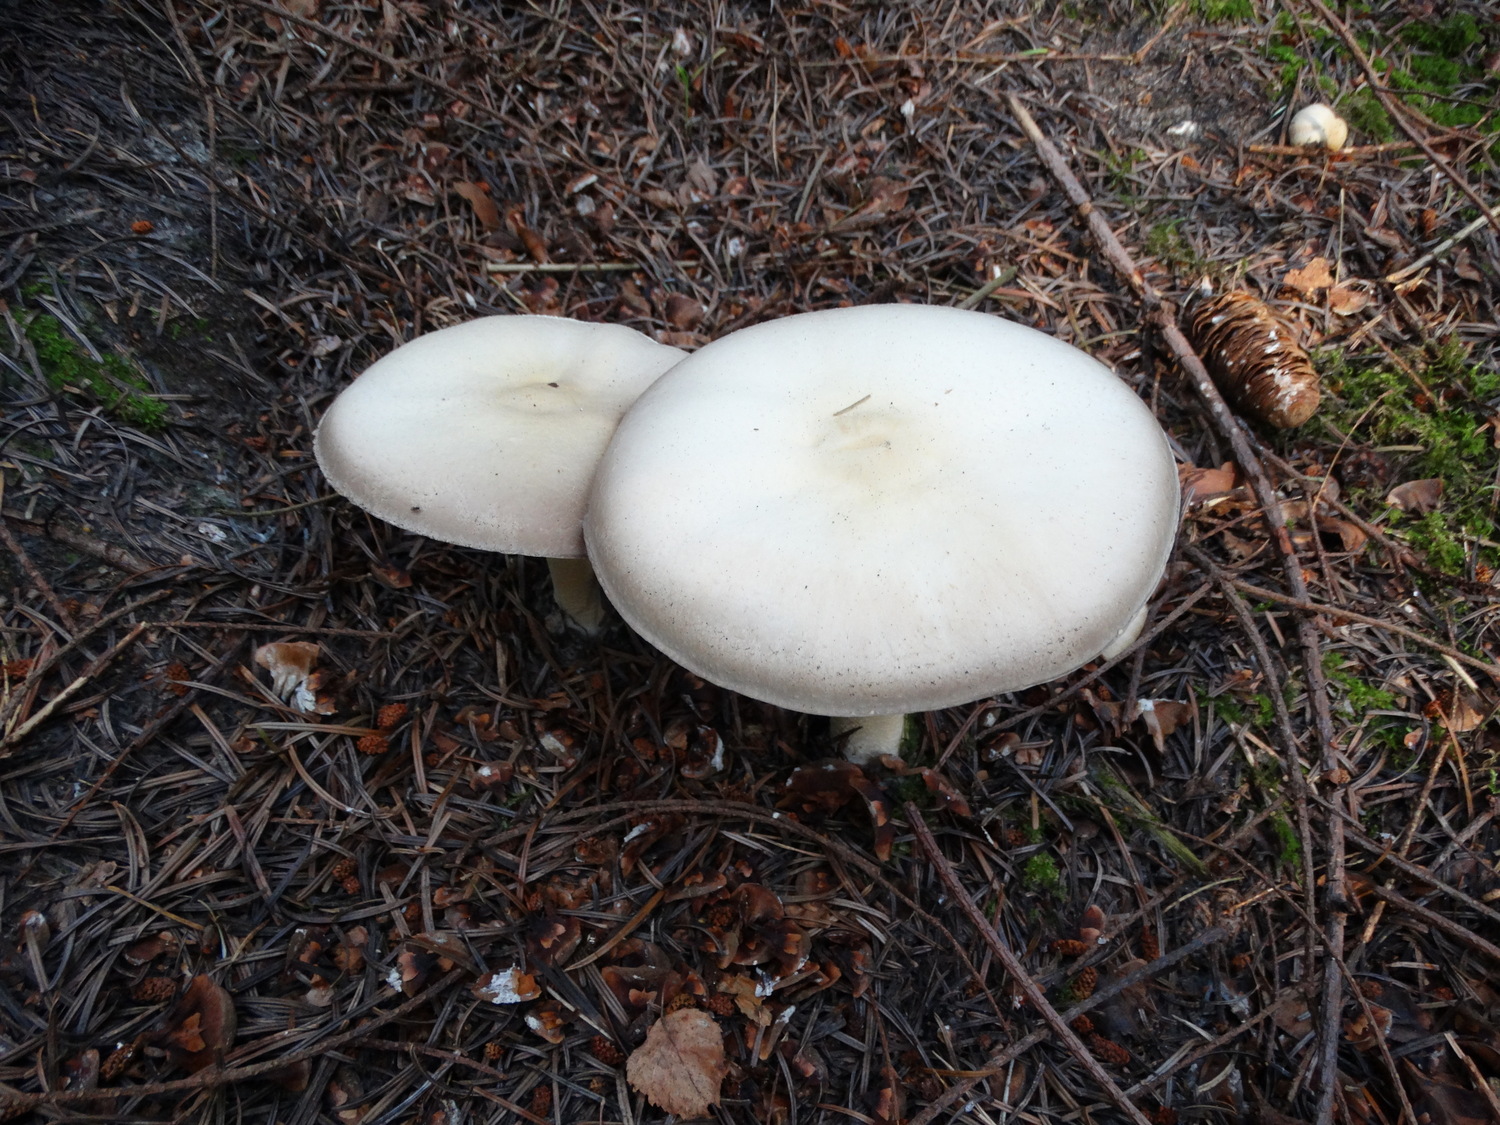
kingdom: Fungi
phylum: Basidiomycota
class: Agaricomycetes
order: Agaricales
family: Agaricaceae
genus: Agaricus
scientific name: Agaricus sylvicola
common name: gulhvid champignon
